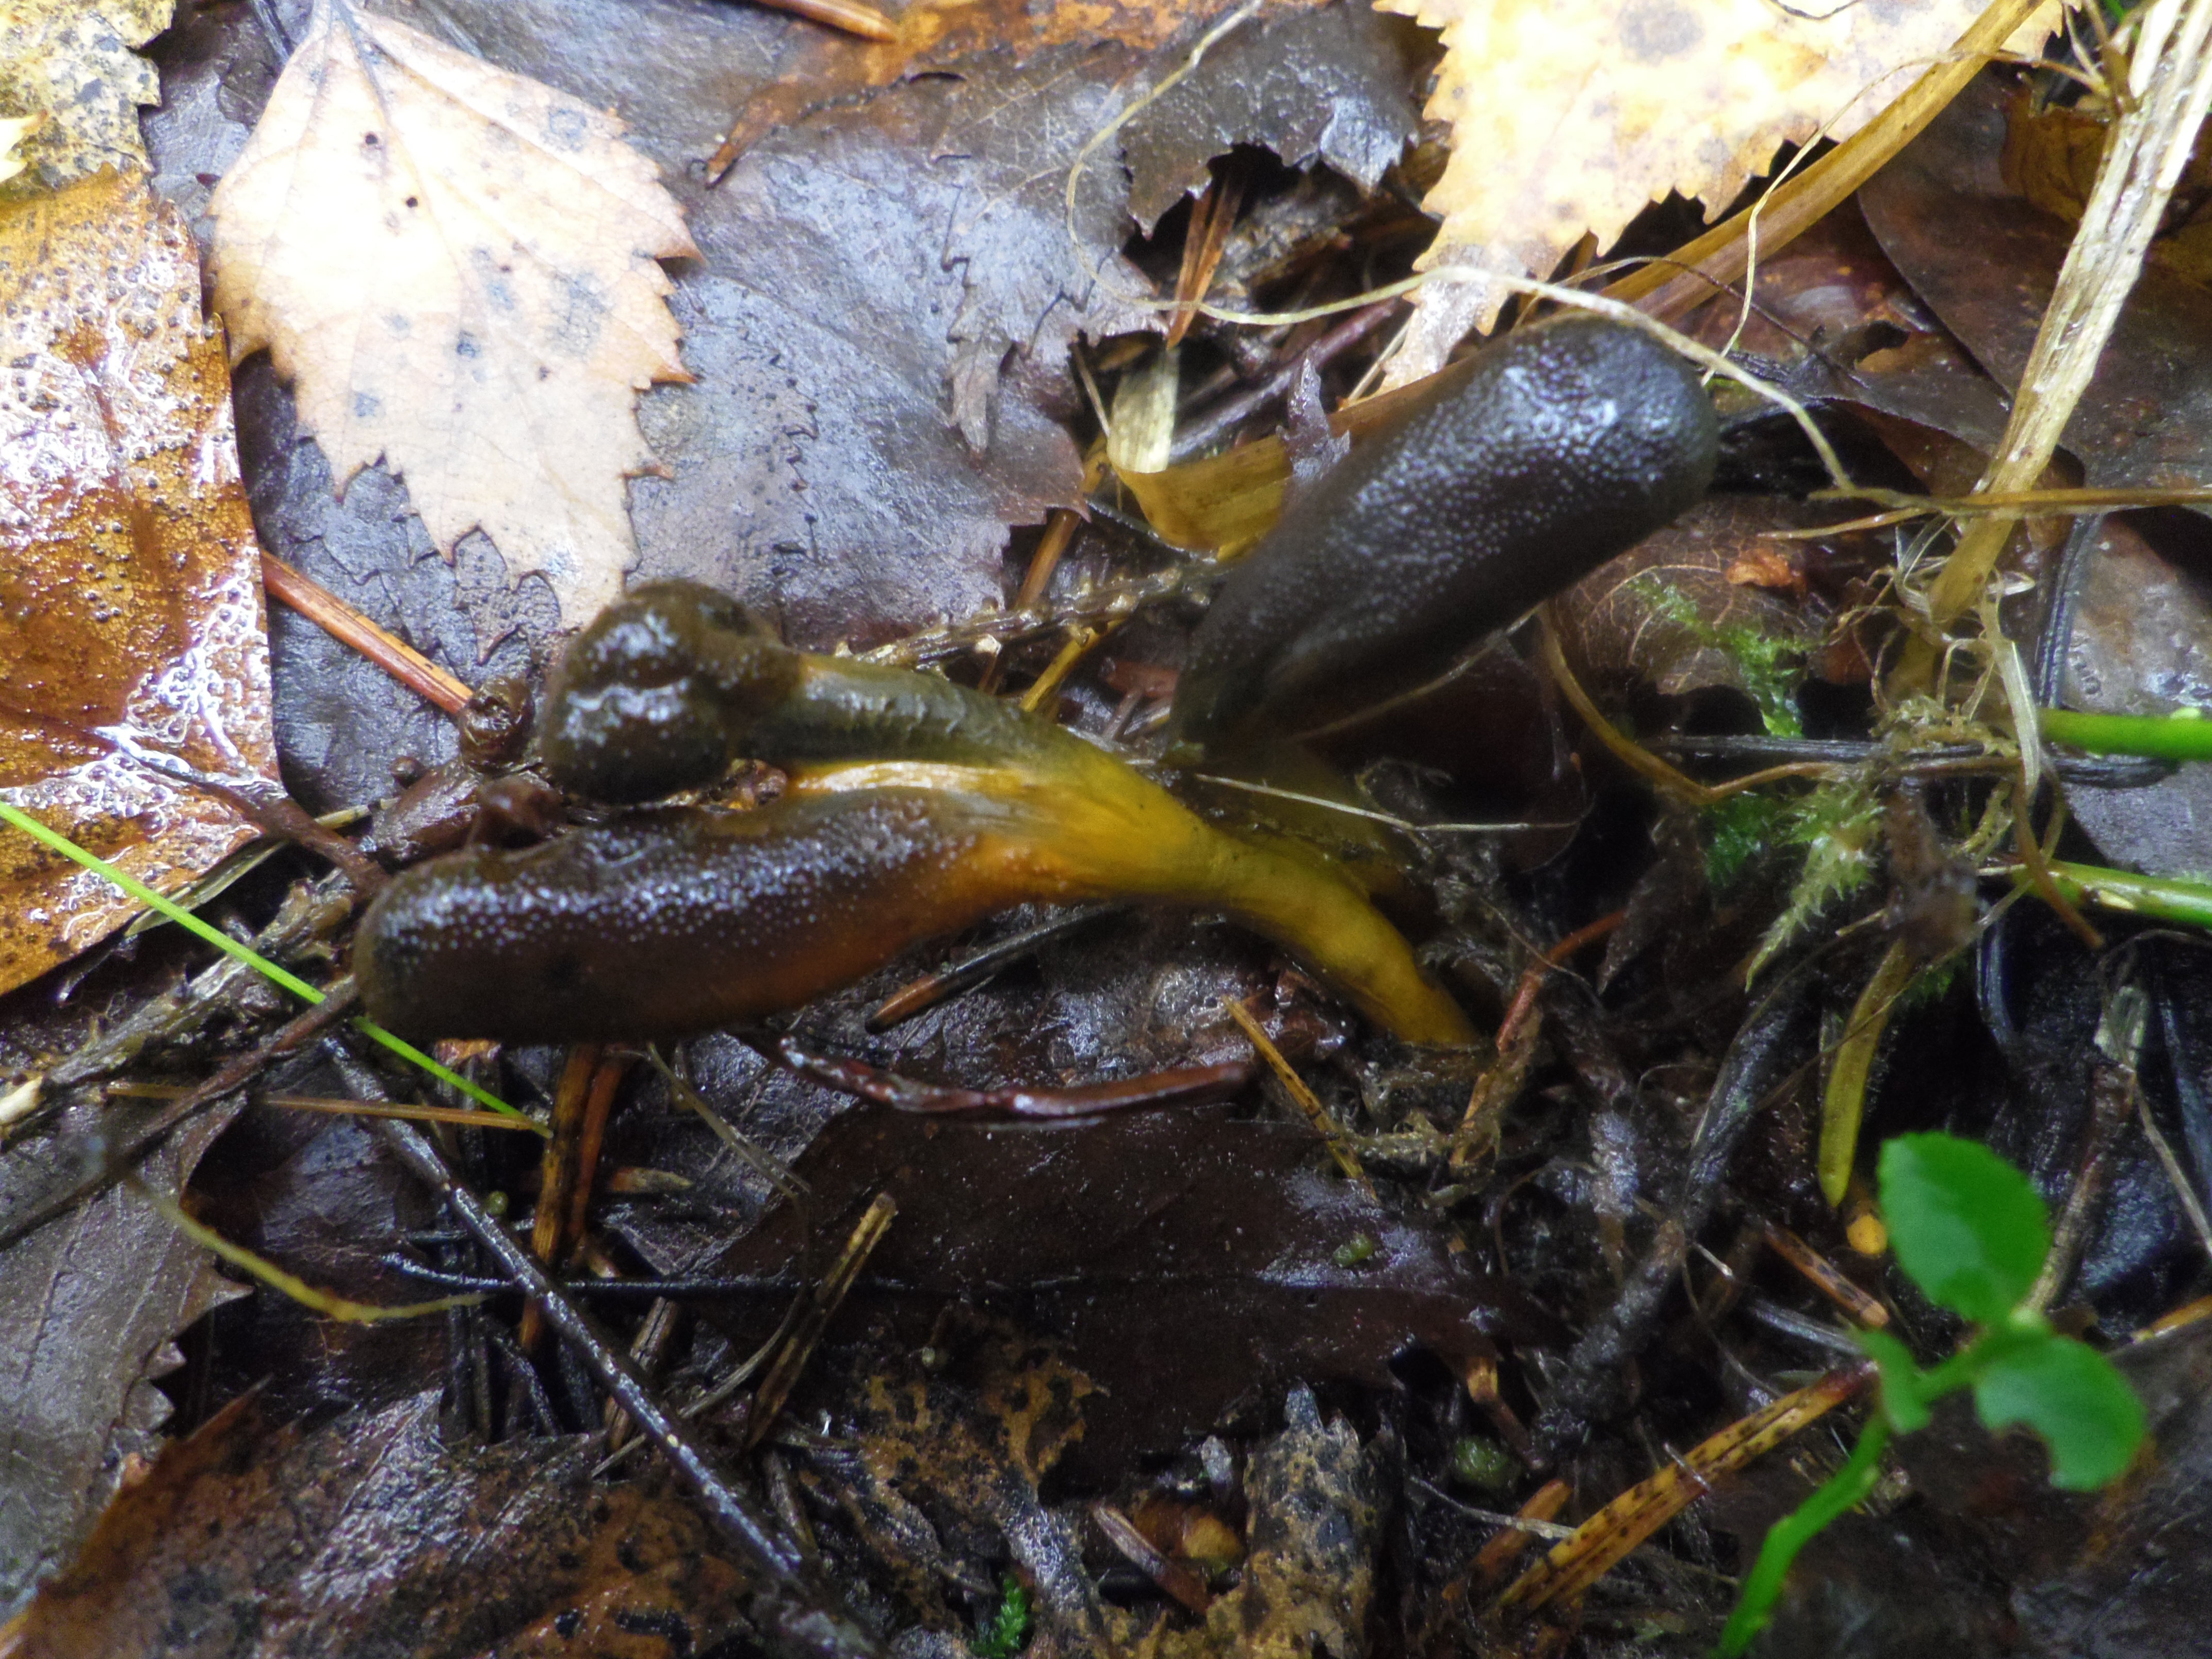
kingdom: Fungi
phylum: Ascomycota
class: Sordariomycetes
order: Hypocreales
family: Ophiocordycipitaceae
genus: Tolypocladium
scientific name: Tolypocladium longisegmentatum
